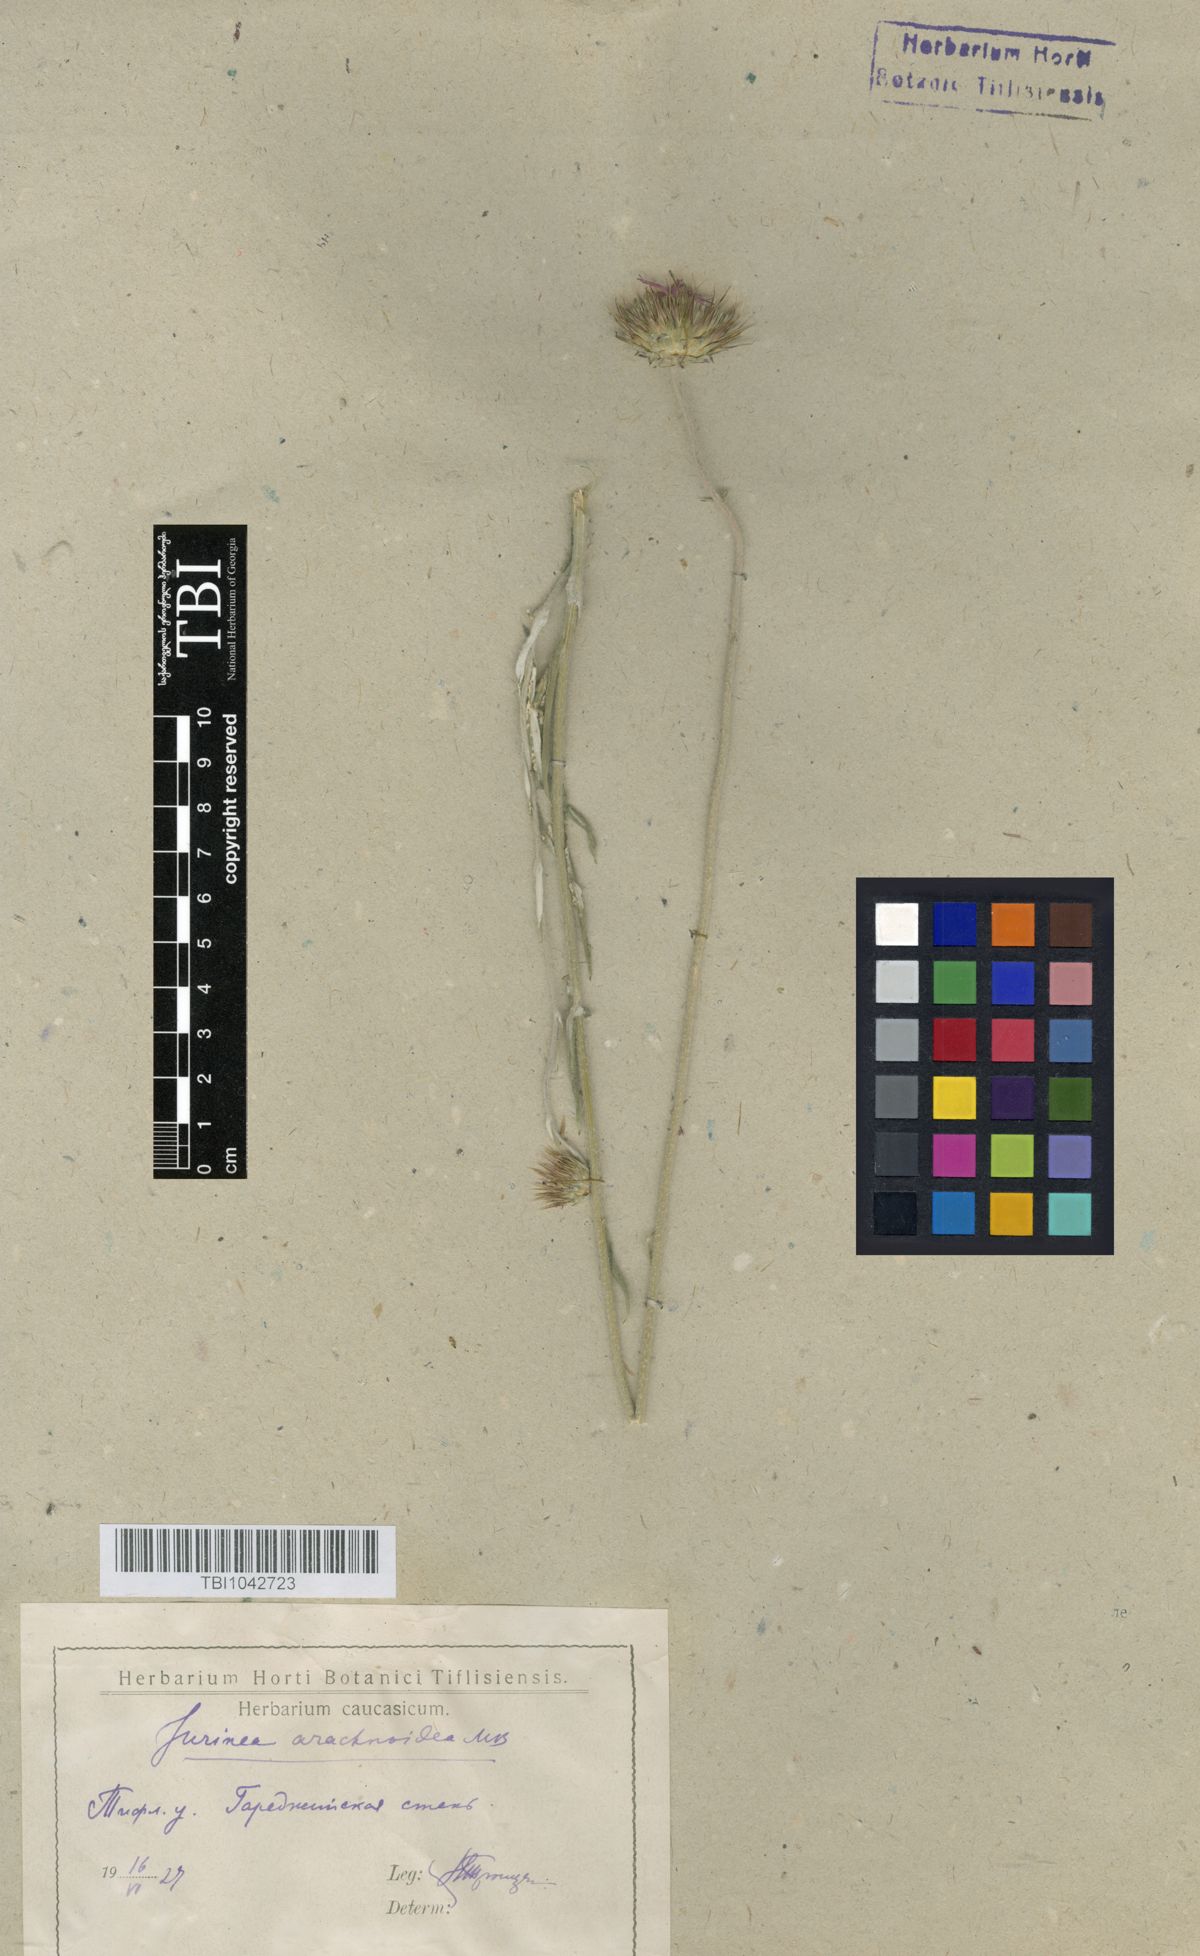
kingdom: Plantae
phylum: Tracheophyta
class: Magnoliopsida
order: Asterales
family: Asteraceae
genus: Jurinea
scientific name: Jurinea blanda
